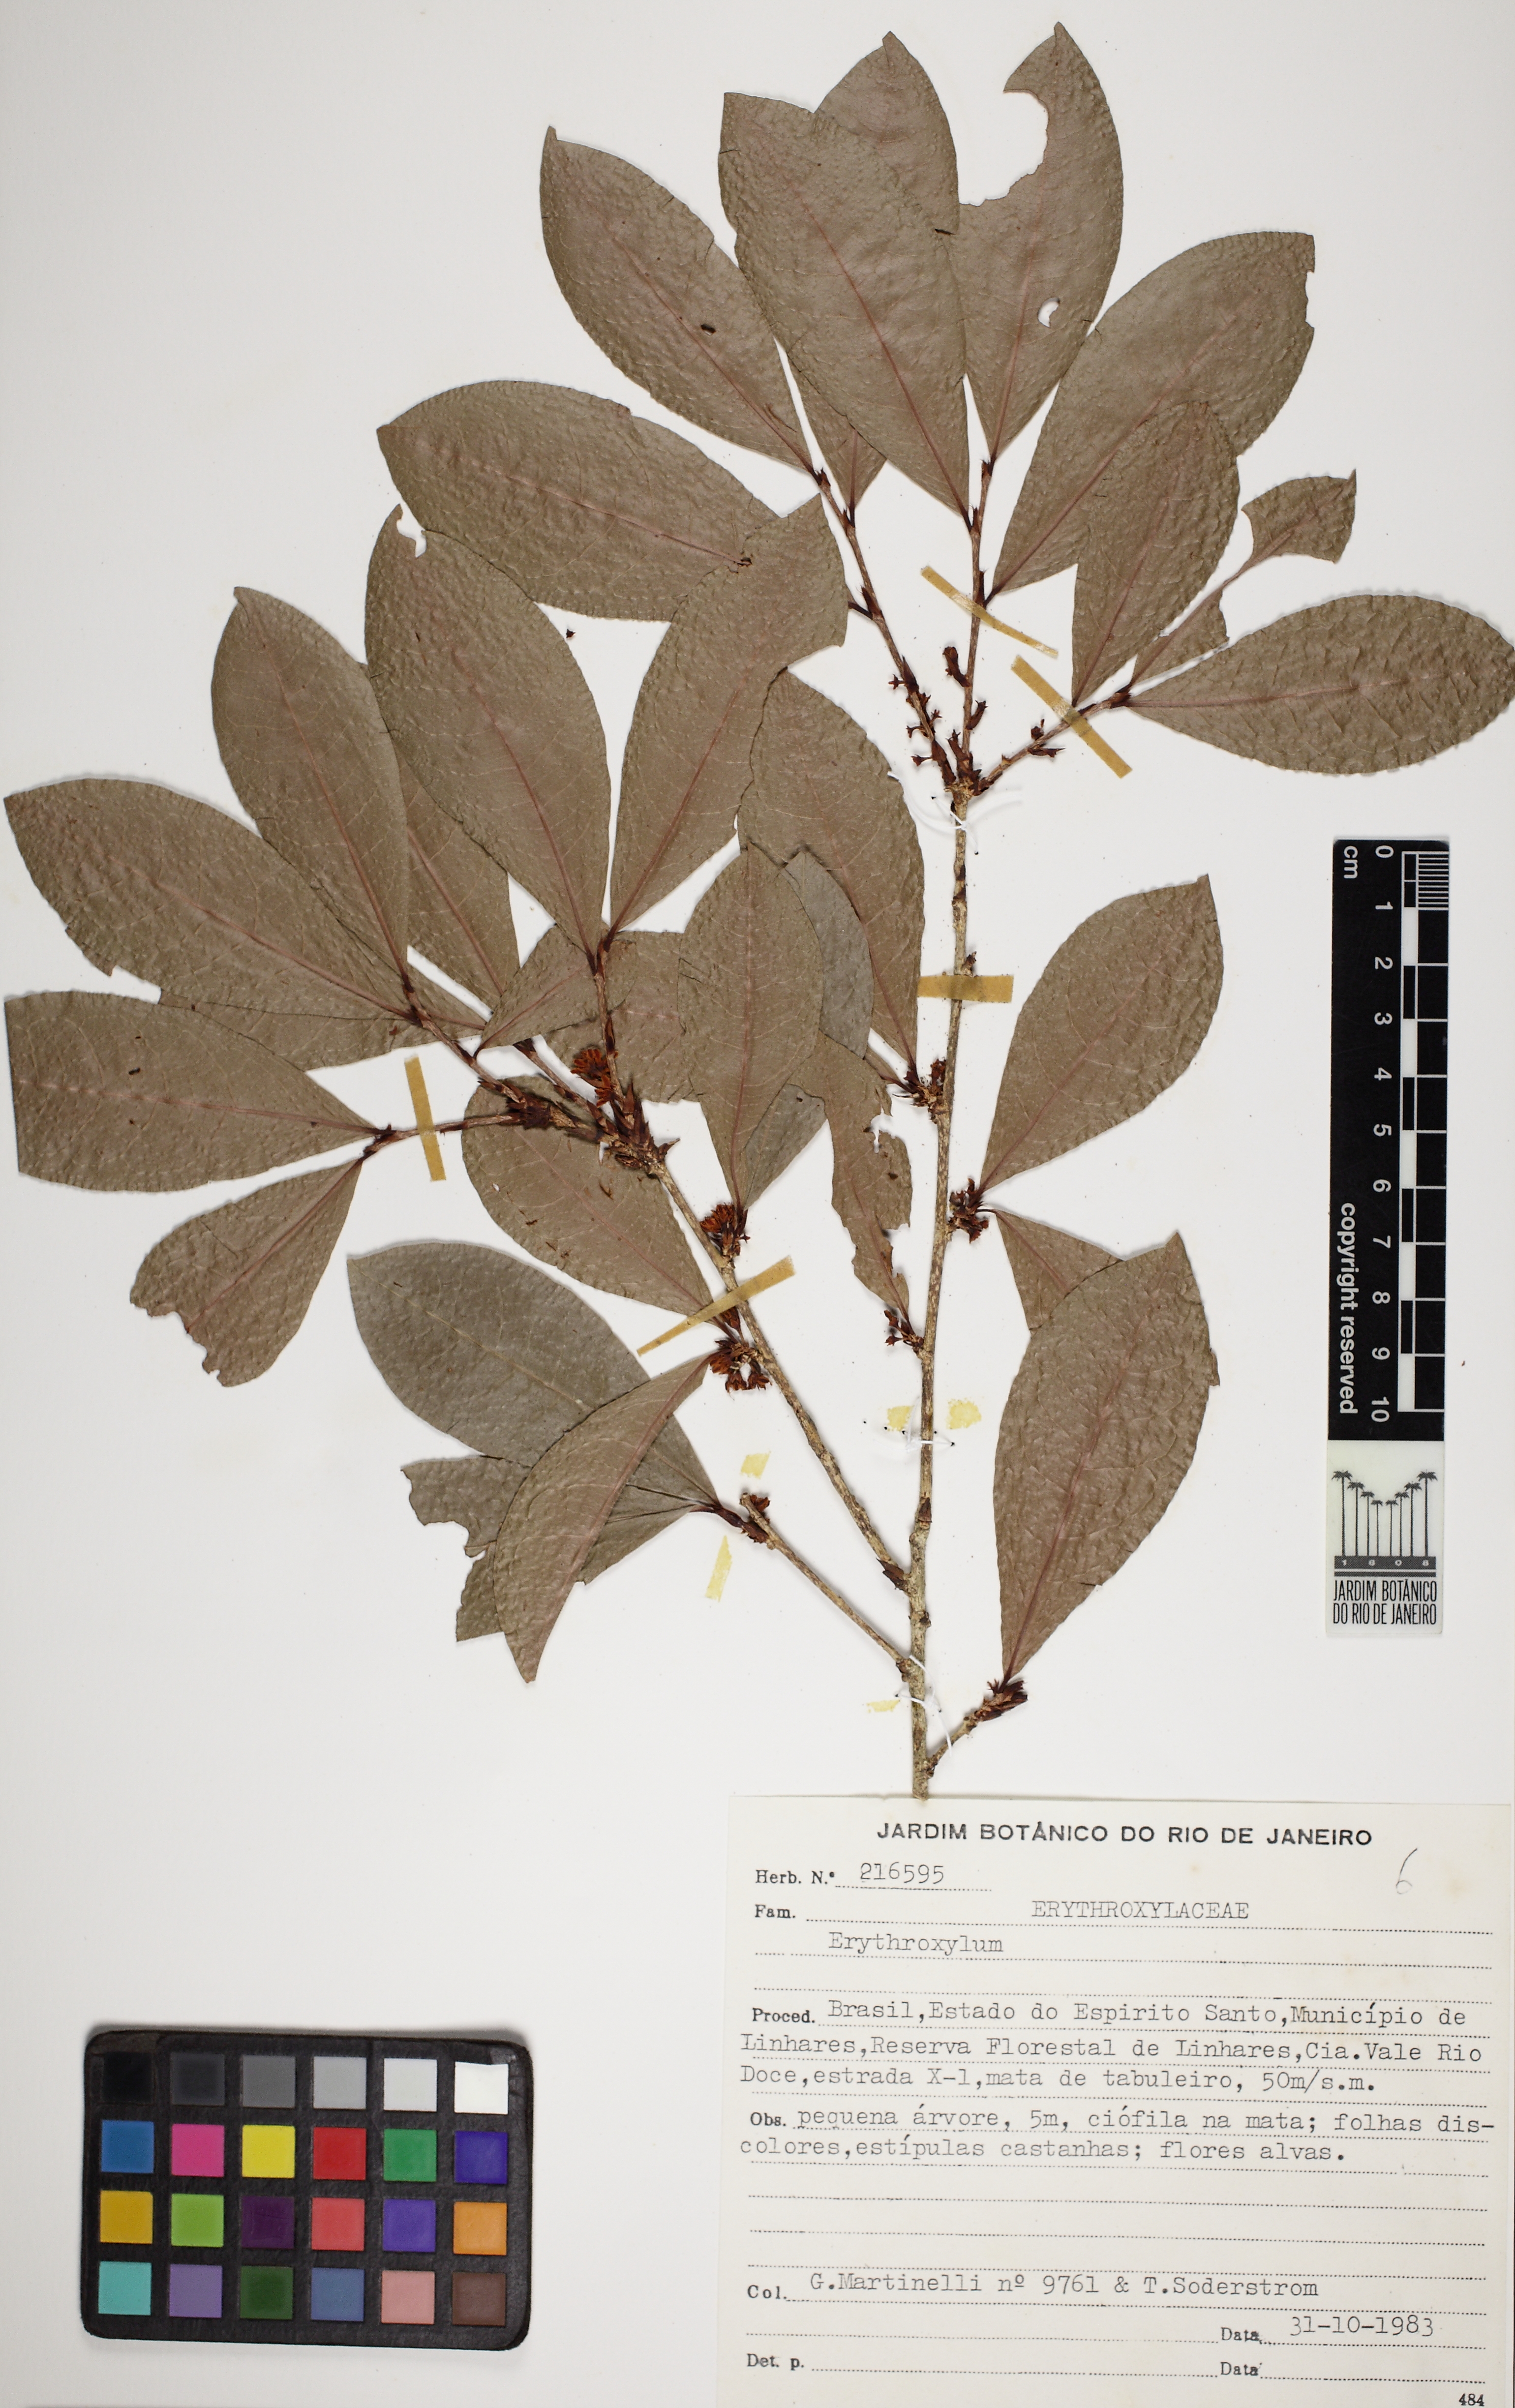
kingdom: Plantae
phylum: Tracheophyta
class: Magnoliopsida
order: Malpighiales
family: Erythroxylaceae
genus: Erythroxylum
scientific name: Erythroxylum ochranthum
